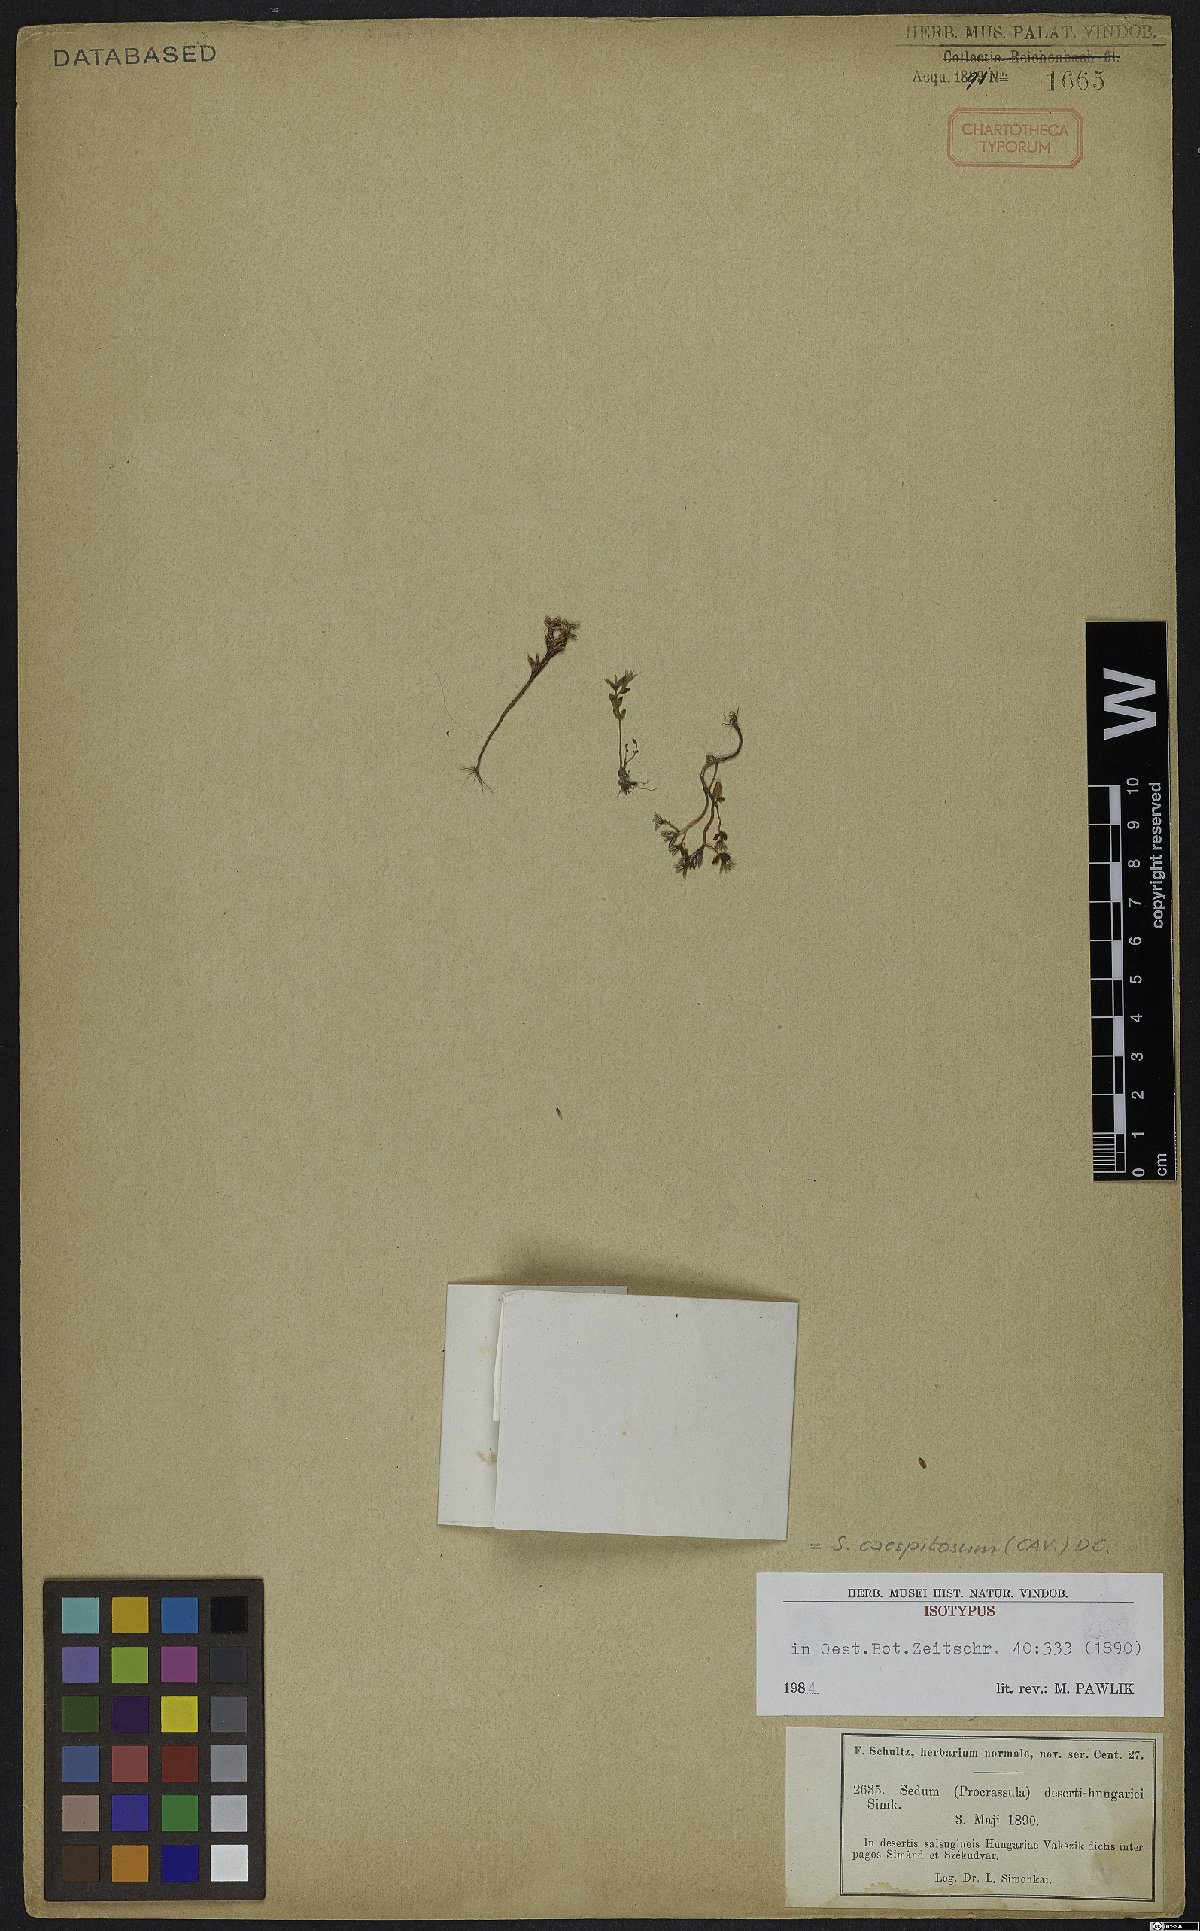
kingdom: Plantae
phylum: Tracheophyta
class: Magnoliopsida
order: Saxifragales
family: Crassulaceae
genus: Sedum
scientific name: Sedum cespitosum
